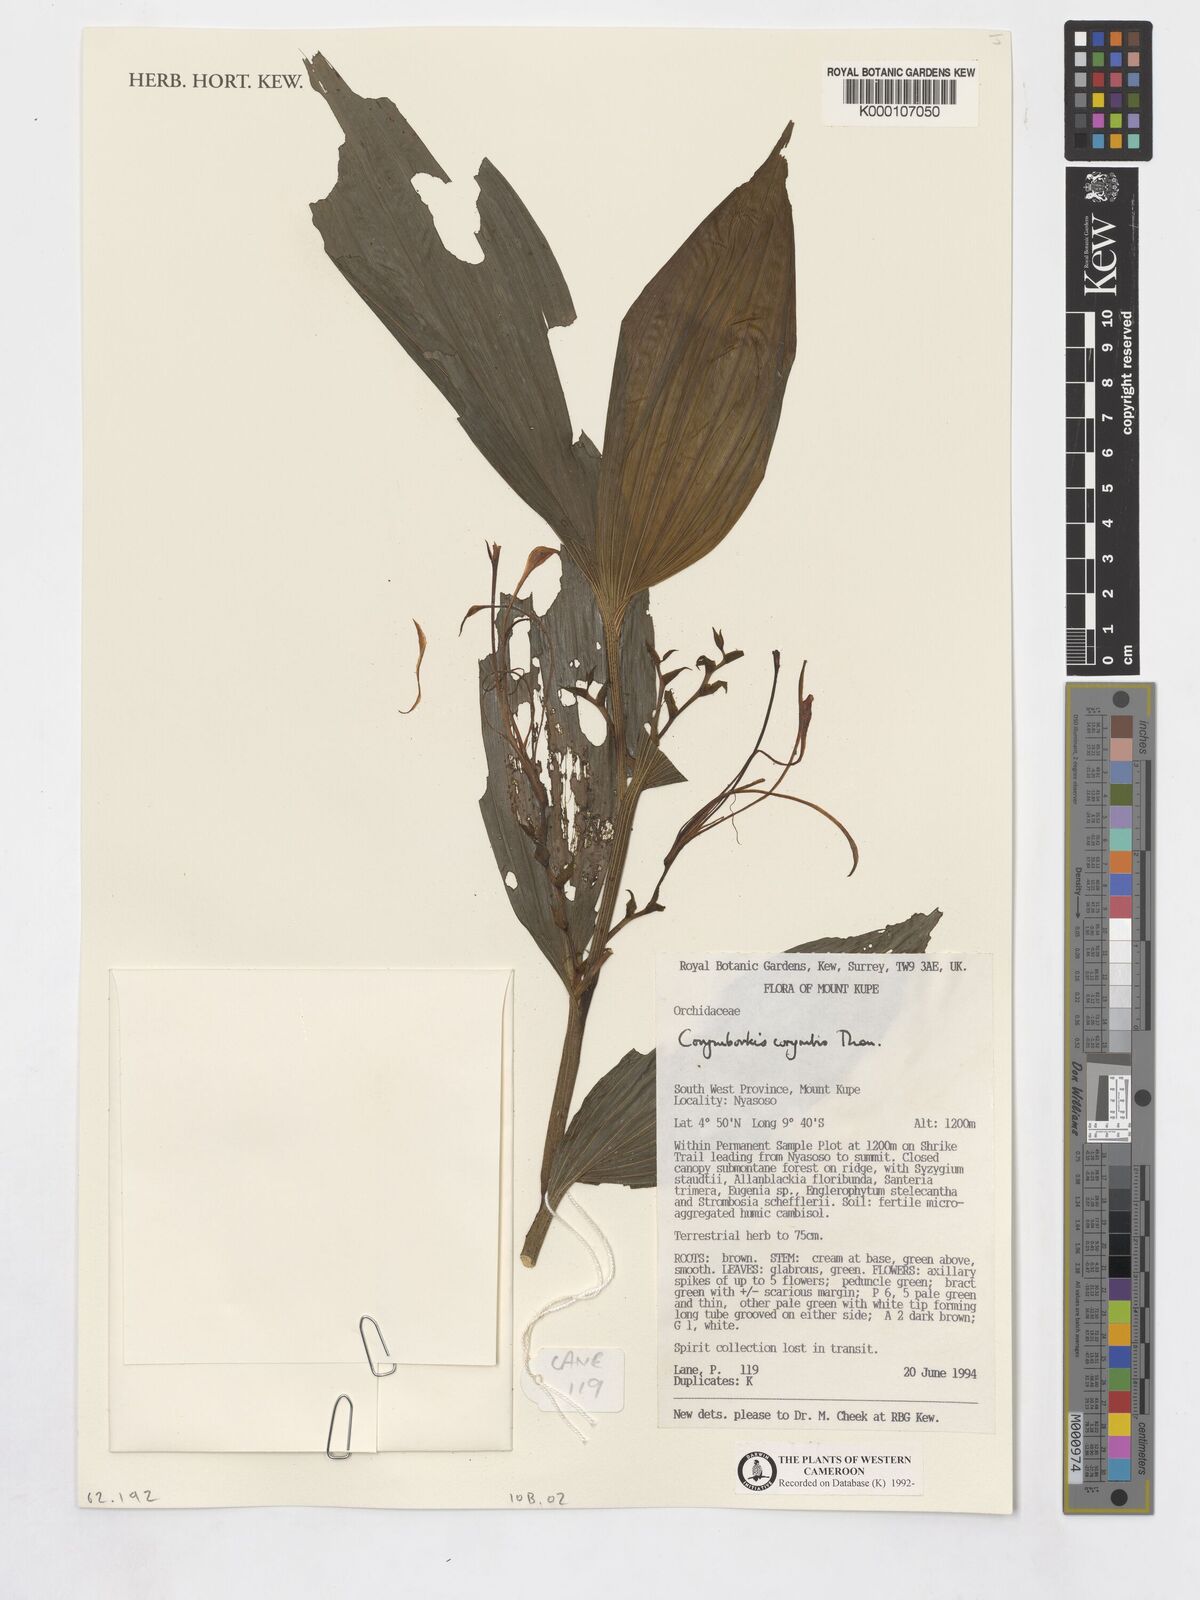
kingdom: Plantae
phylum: Tracheophyta
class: Liliopsida
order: Asparagales
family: Orchidaceae
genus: Corymborkis
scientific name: Corymborkis corymbis
